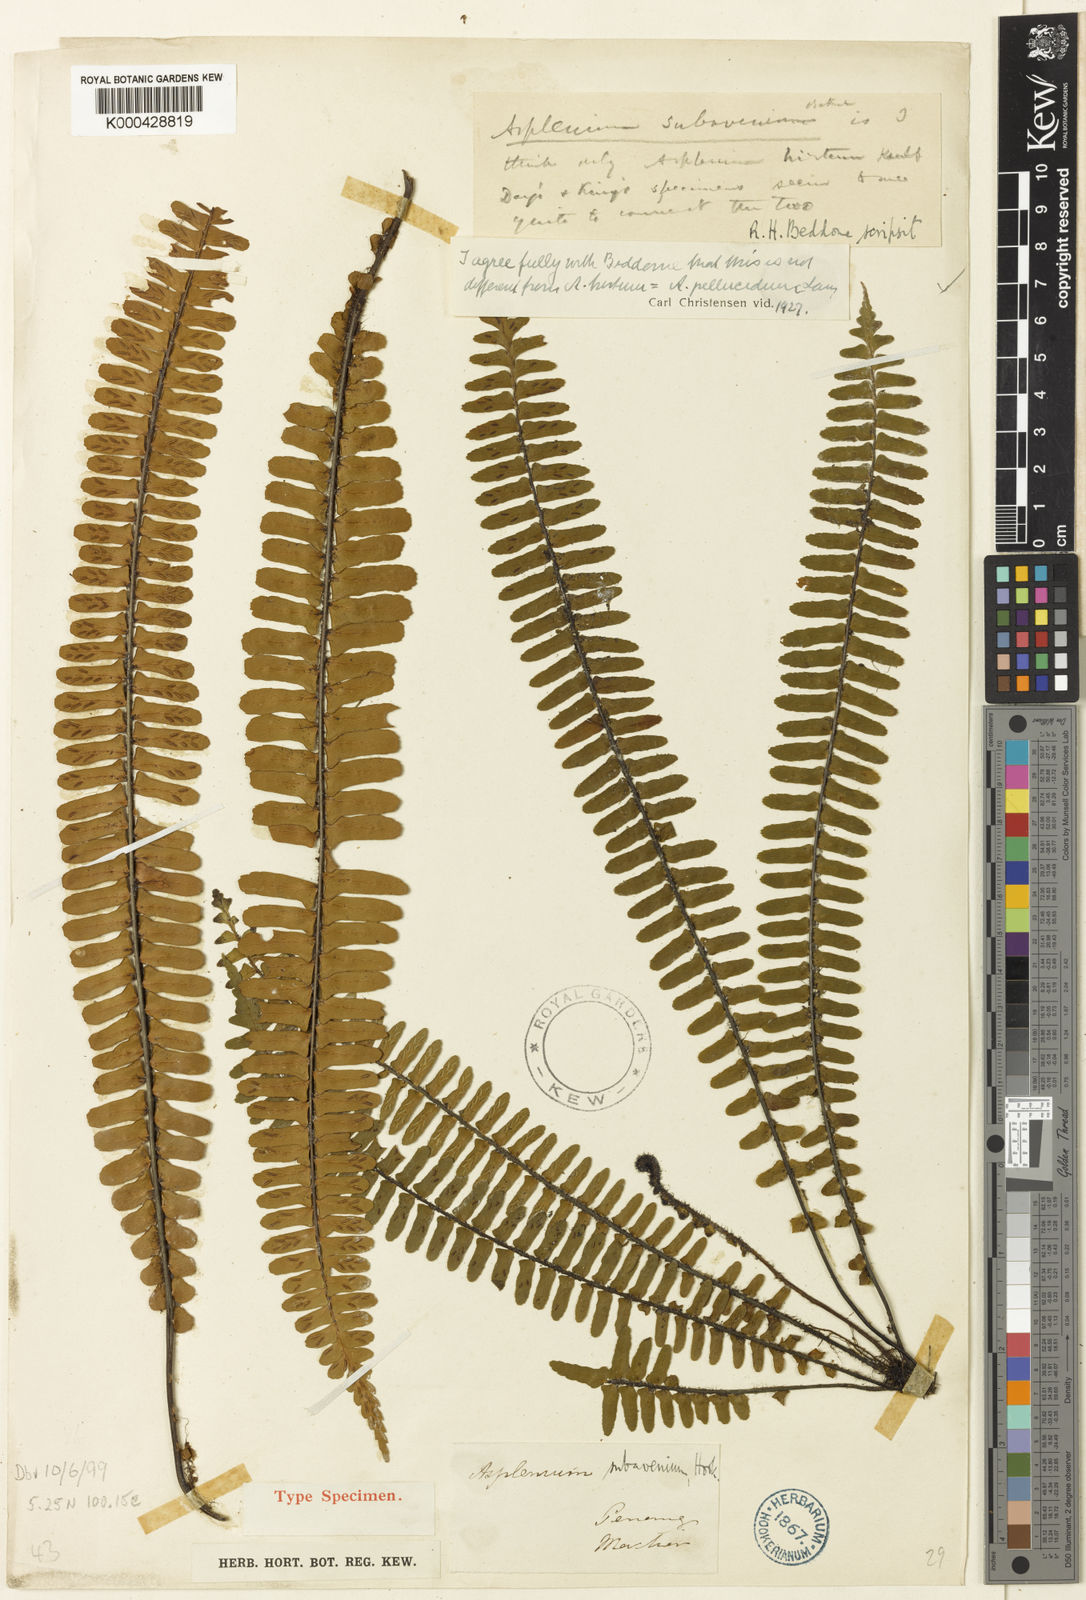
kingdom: Plantae
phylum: Tracheophyta
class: Polypodiopsida
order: Polypodiales
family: Aspleniaceae
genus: Asplenium
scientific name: Asplenium pellucidum
